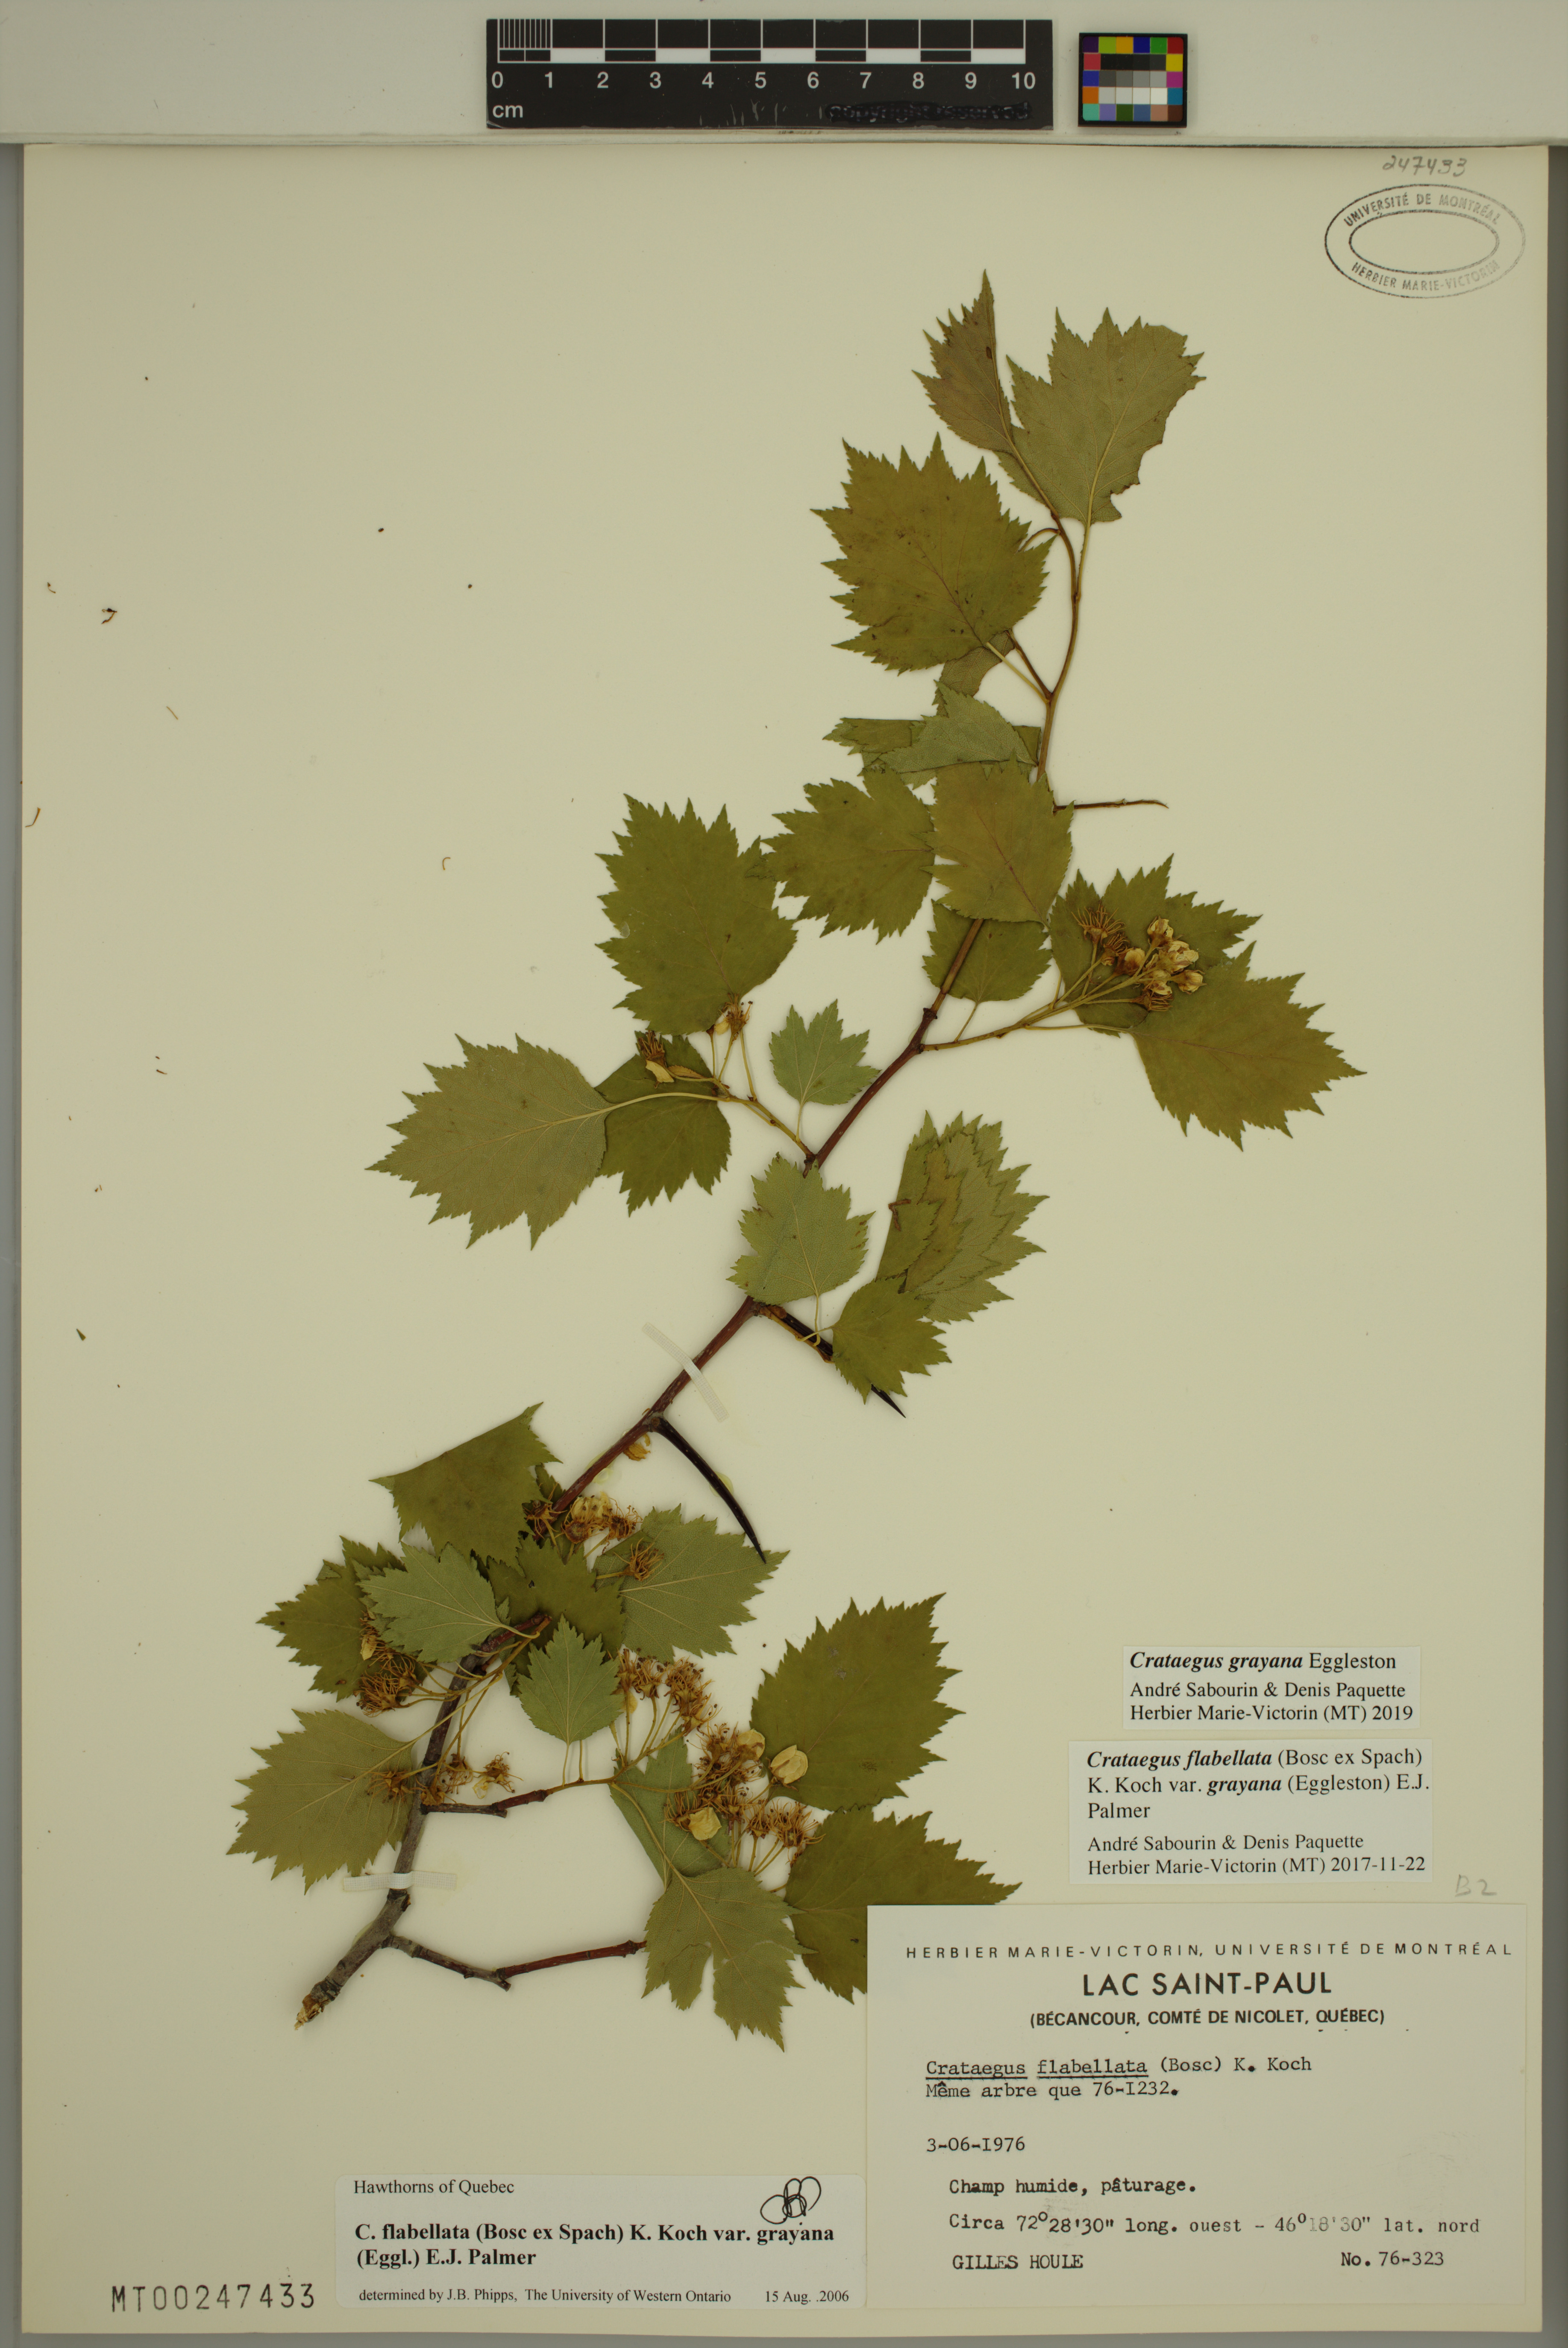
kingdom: Plantae
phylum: Tracheophyta
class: Magnoliopsida
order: Rosales
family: Rosaceae
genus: Crataegus
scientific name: Crataegus schuettei
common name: Schuette's hawthorn
